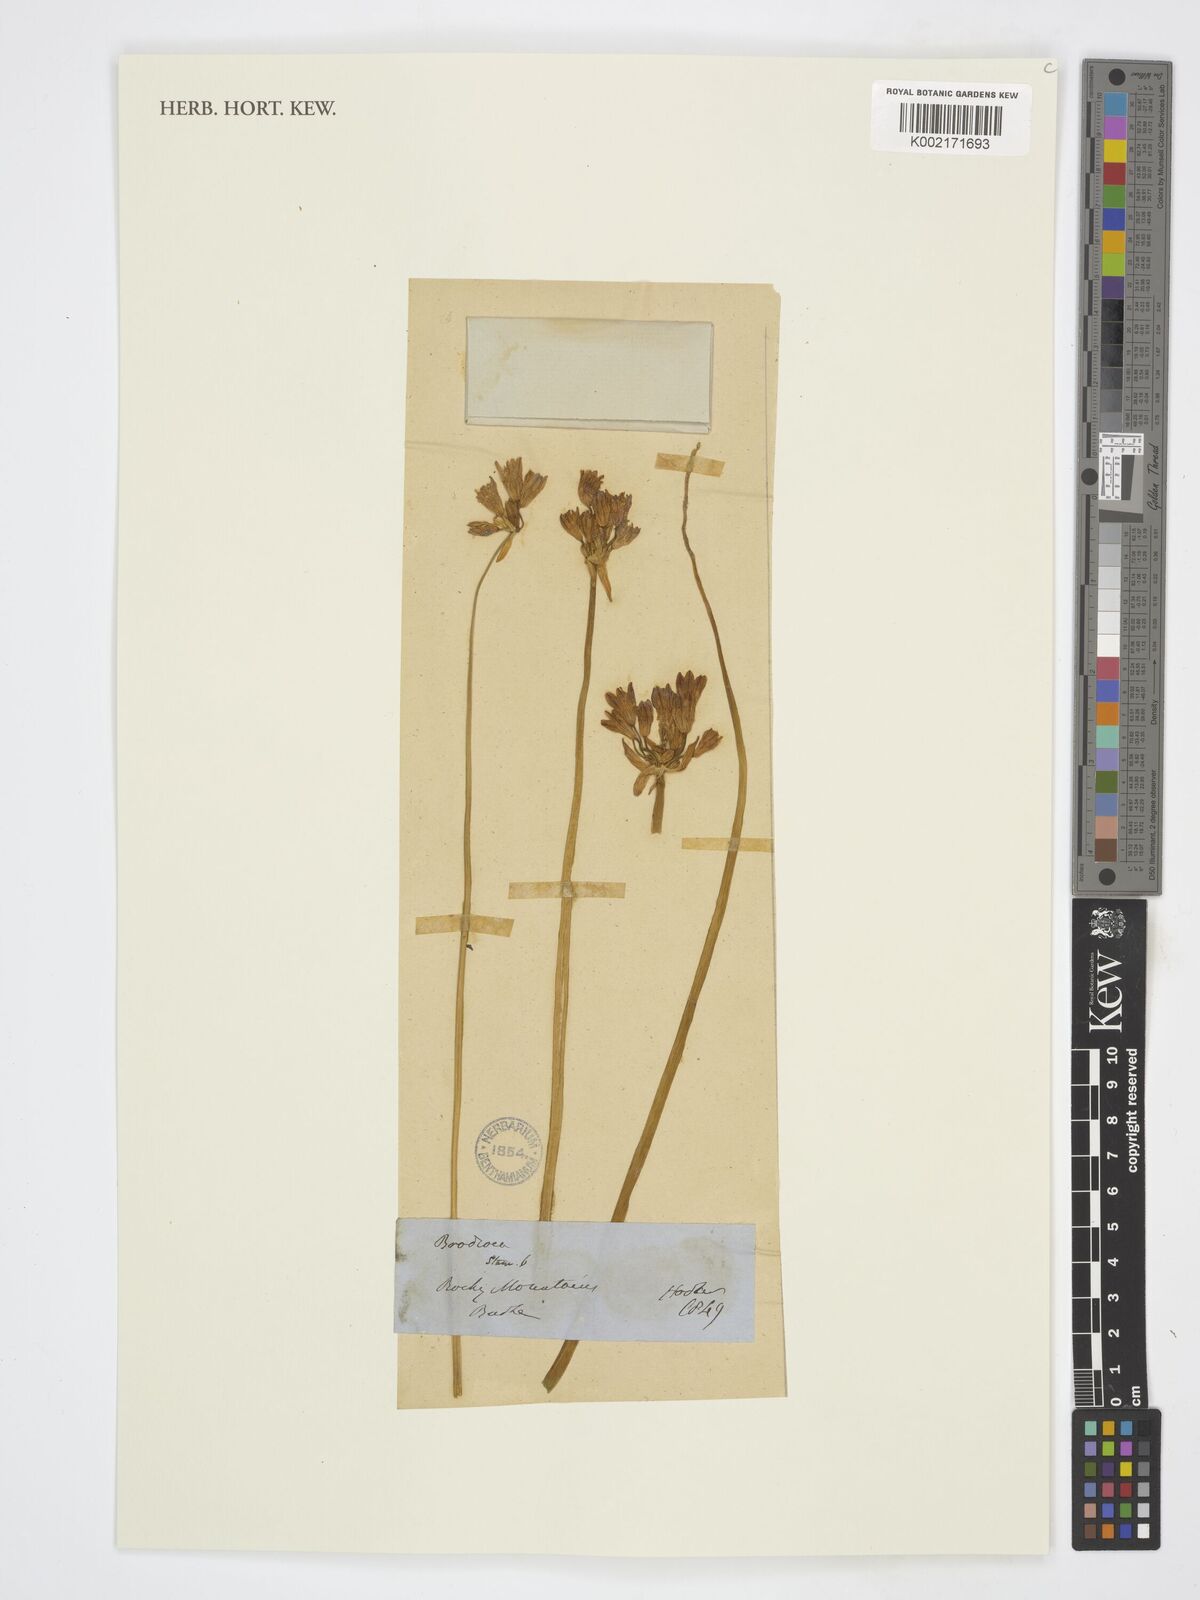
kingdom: Plantae
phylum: Tracheophyta
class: Liliopsida
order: Asparagales
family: Asparagaceae
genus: Triteleia
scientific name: Triteleia grandiflora
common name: Wild hyacinth
